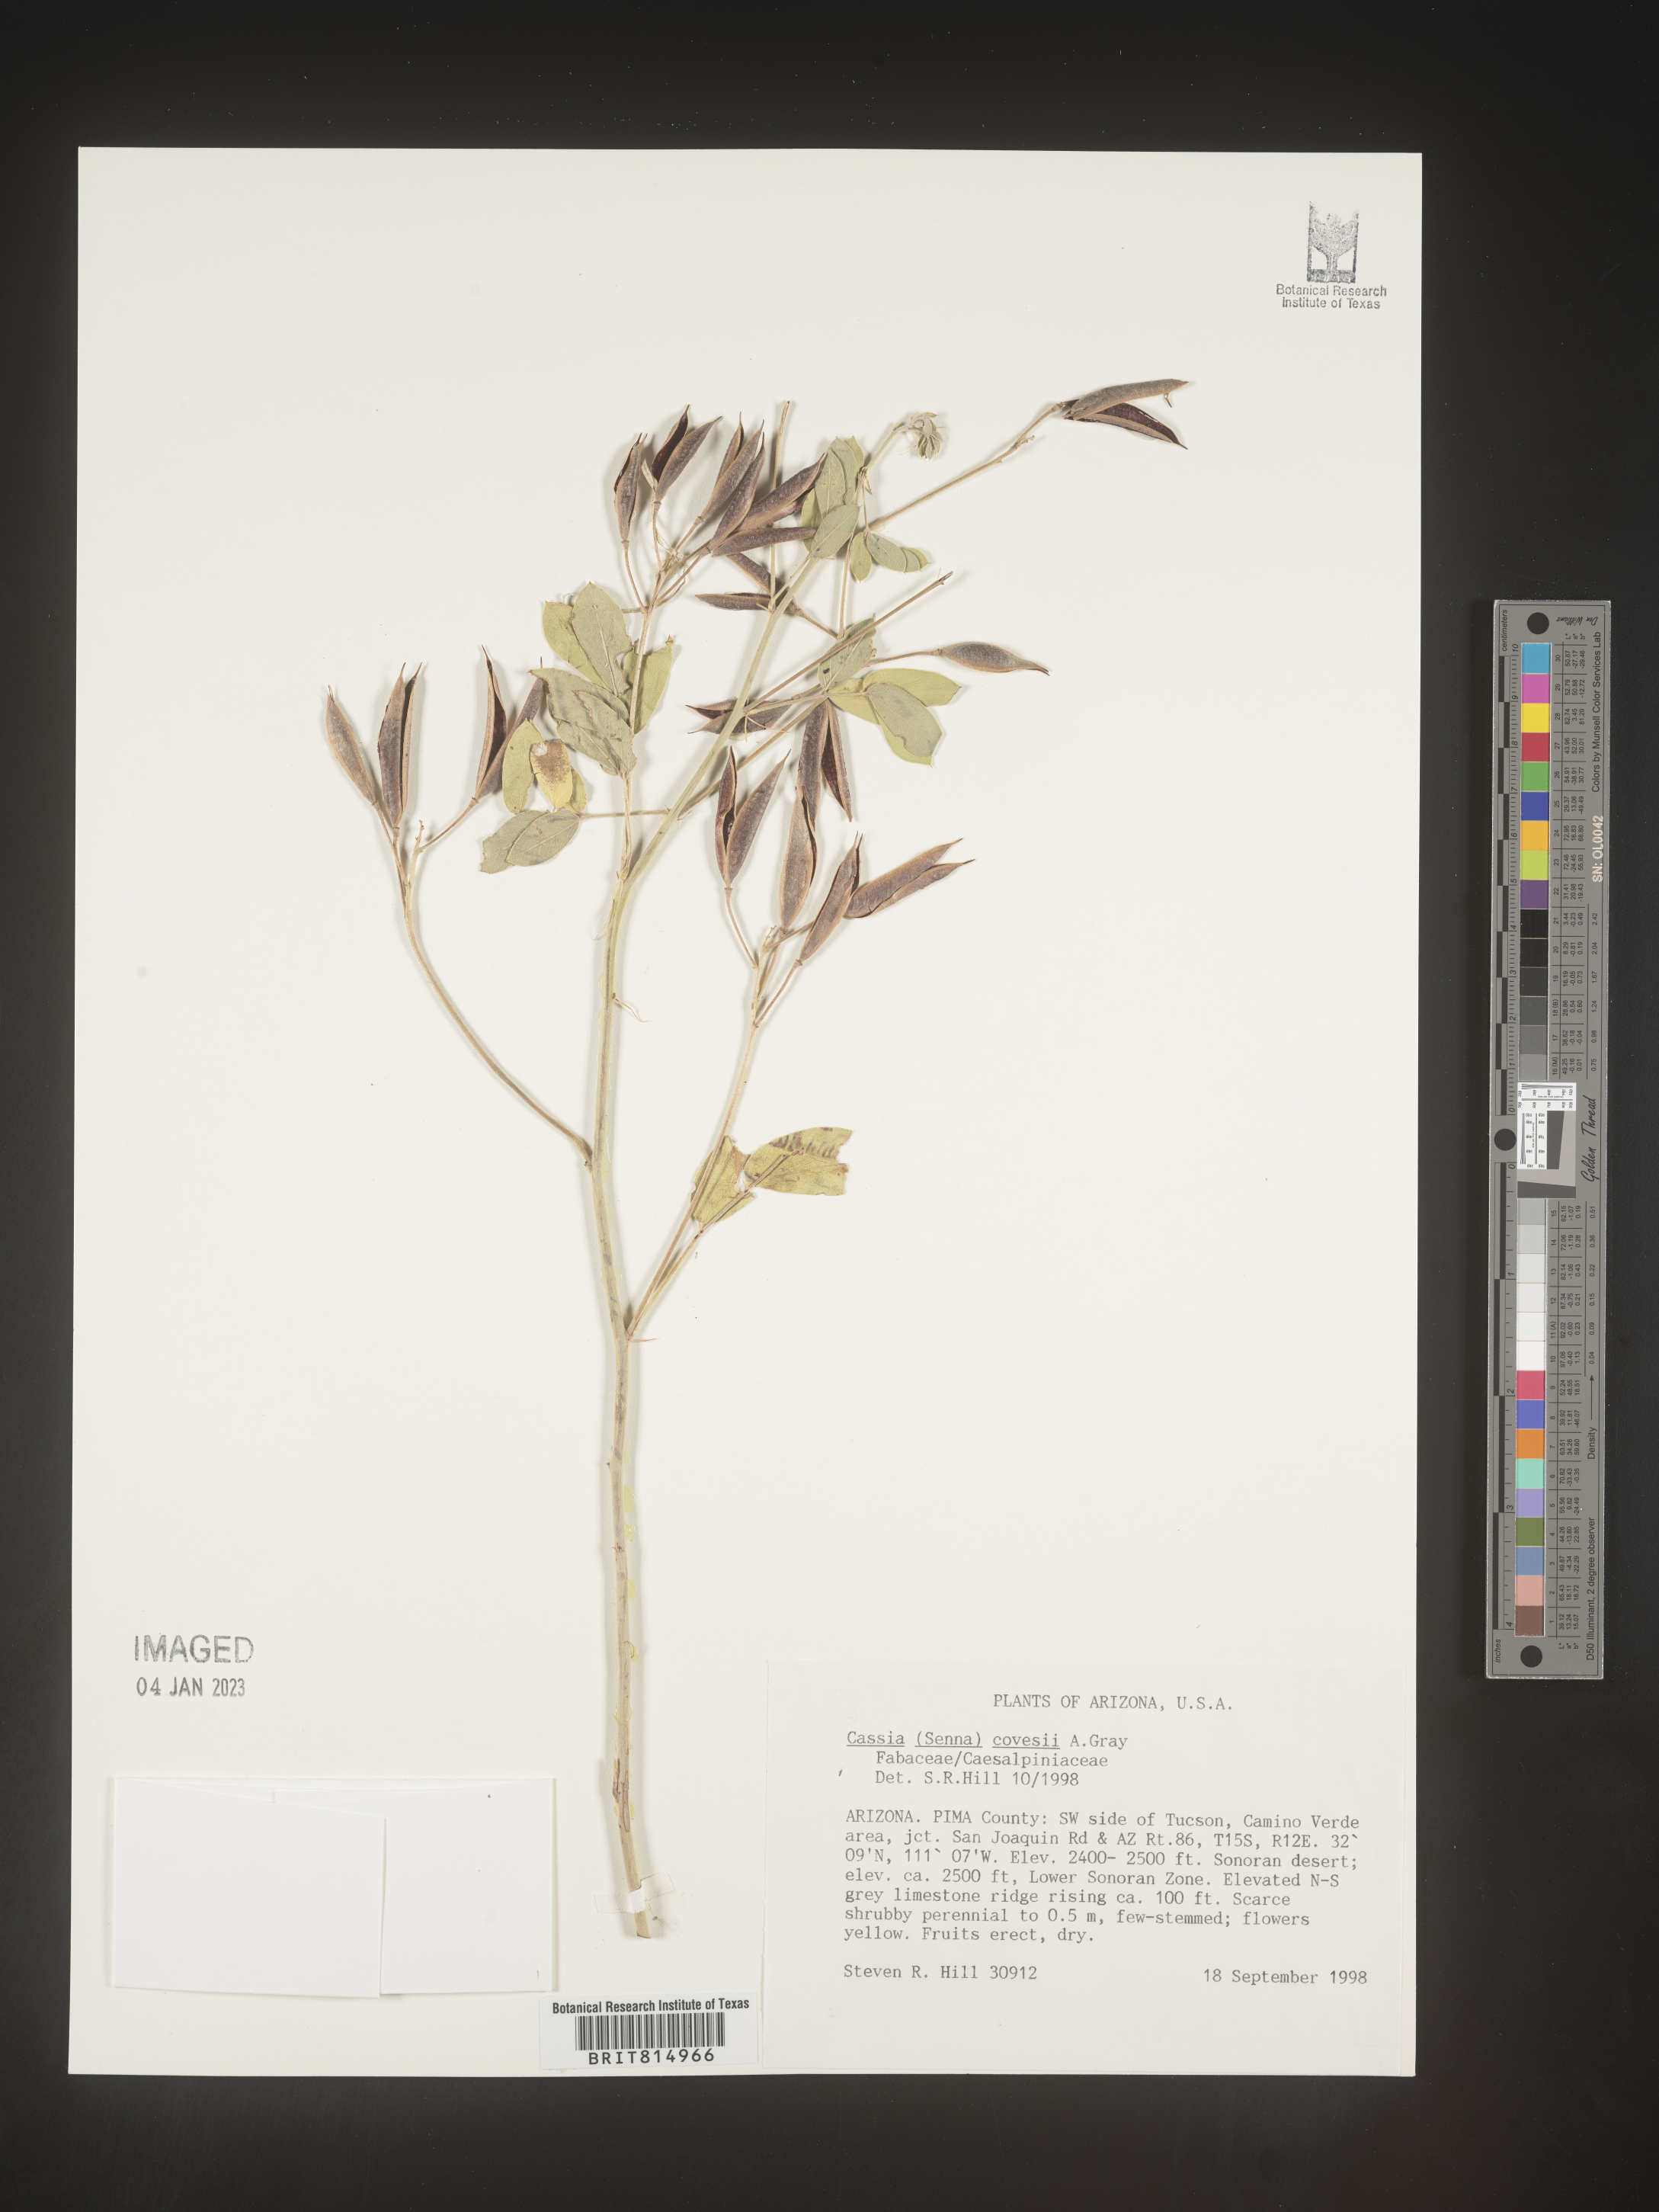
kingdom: Plantae
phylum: Tracheophyta
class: Magnoliopsida
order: Fabales
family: Fabaceae
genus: Cassia
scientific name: Cassia
